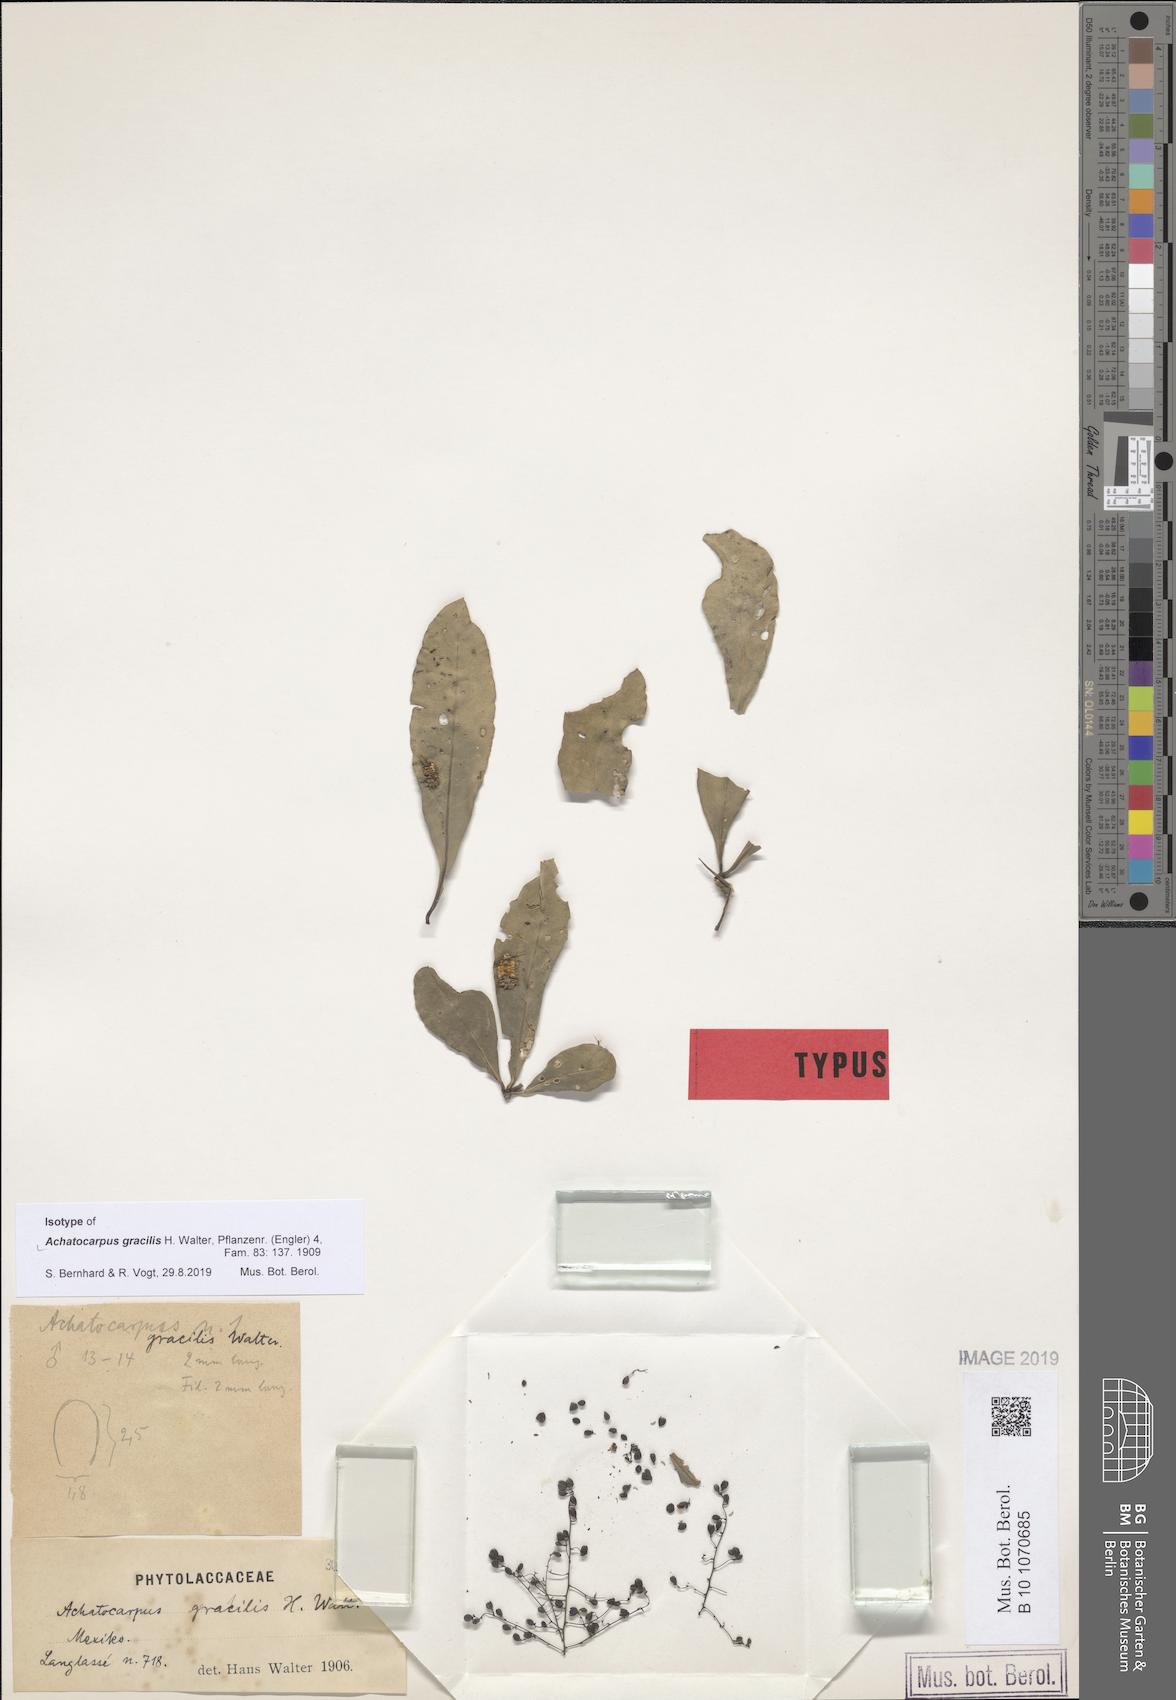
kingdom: Plantae
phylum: Tracheophyta
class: Magnoliopsida
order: Caryophyllales
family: Achatocarpaceae
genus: Achatocarpus
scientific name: Achatocarpus gracilis
